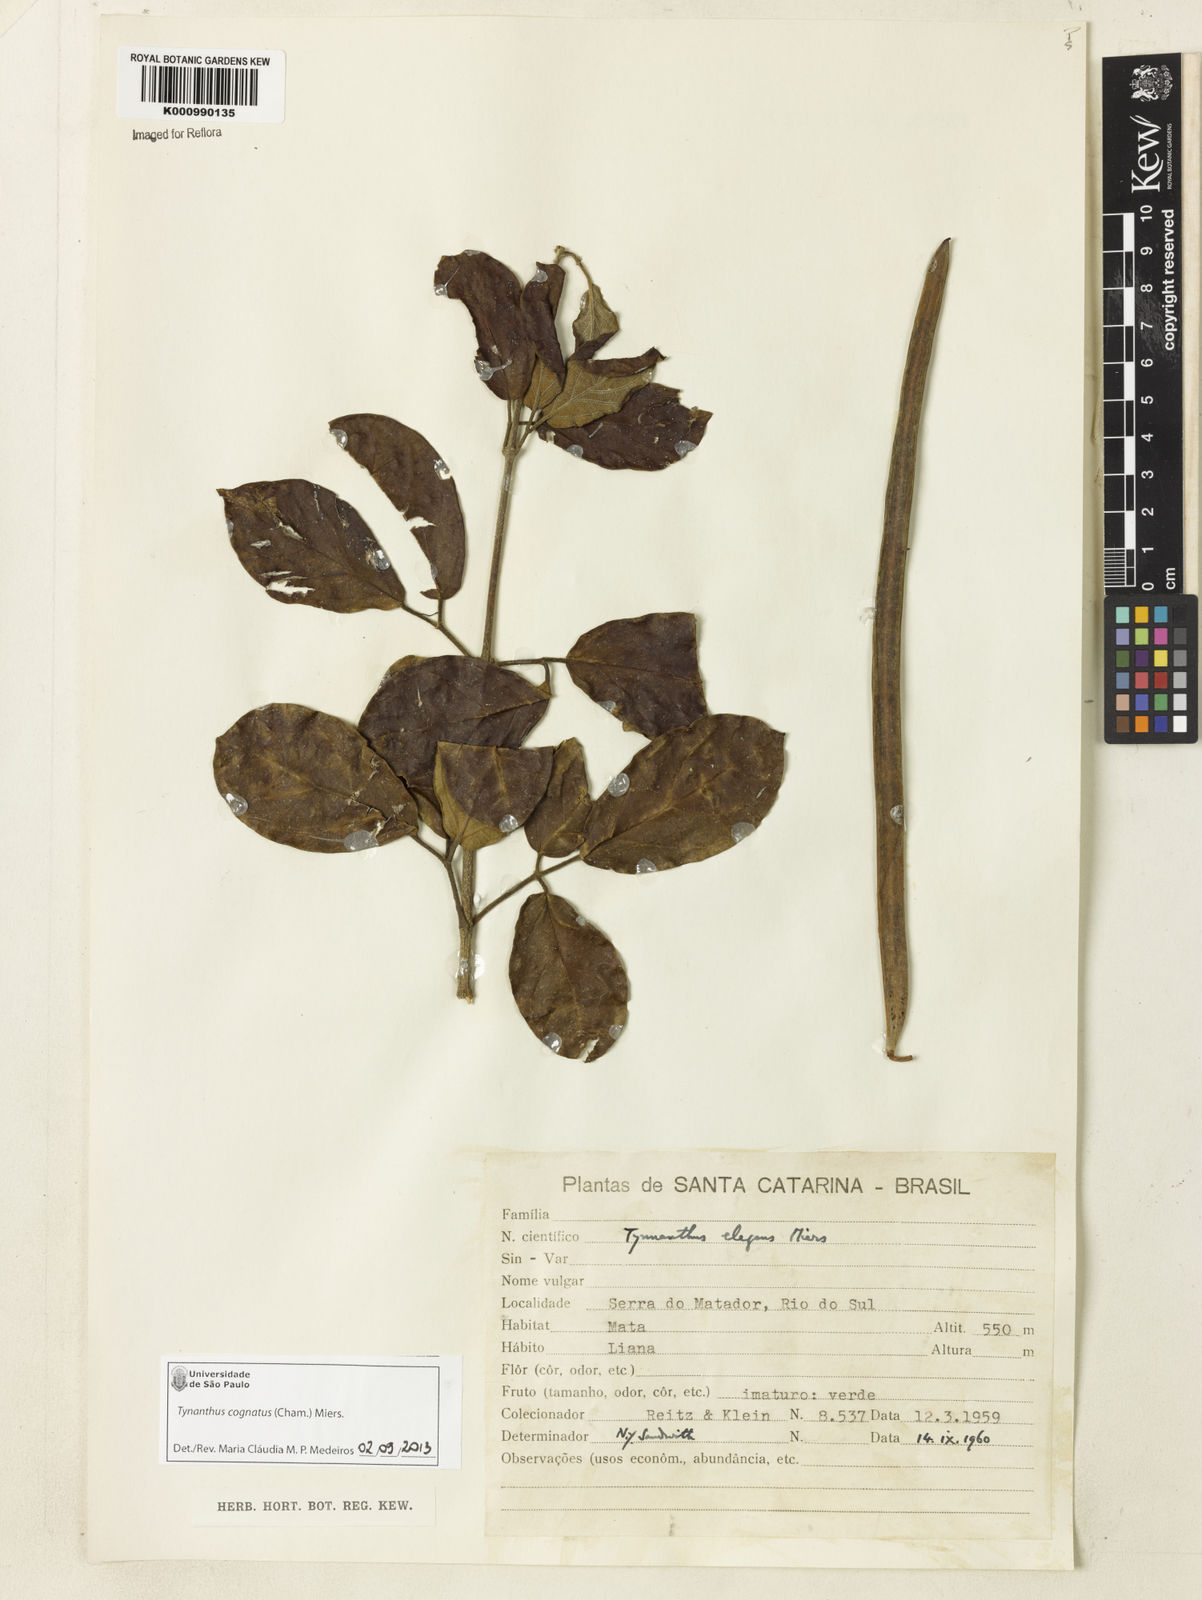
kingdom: Plantae
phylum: Tracheophyta
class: Magnoliopsida
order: Lamiales
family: Bignoniaceae
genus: Tynanthus
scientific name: Tynanthus cognatus
